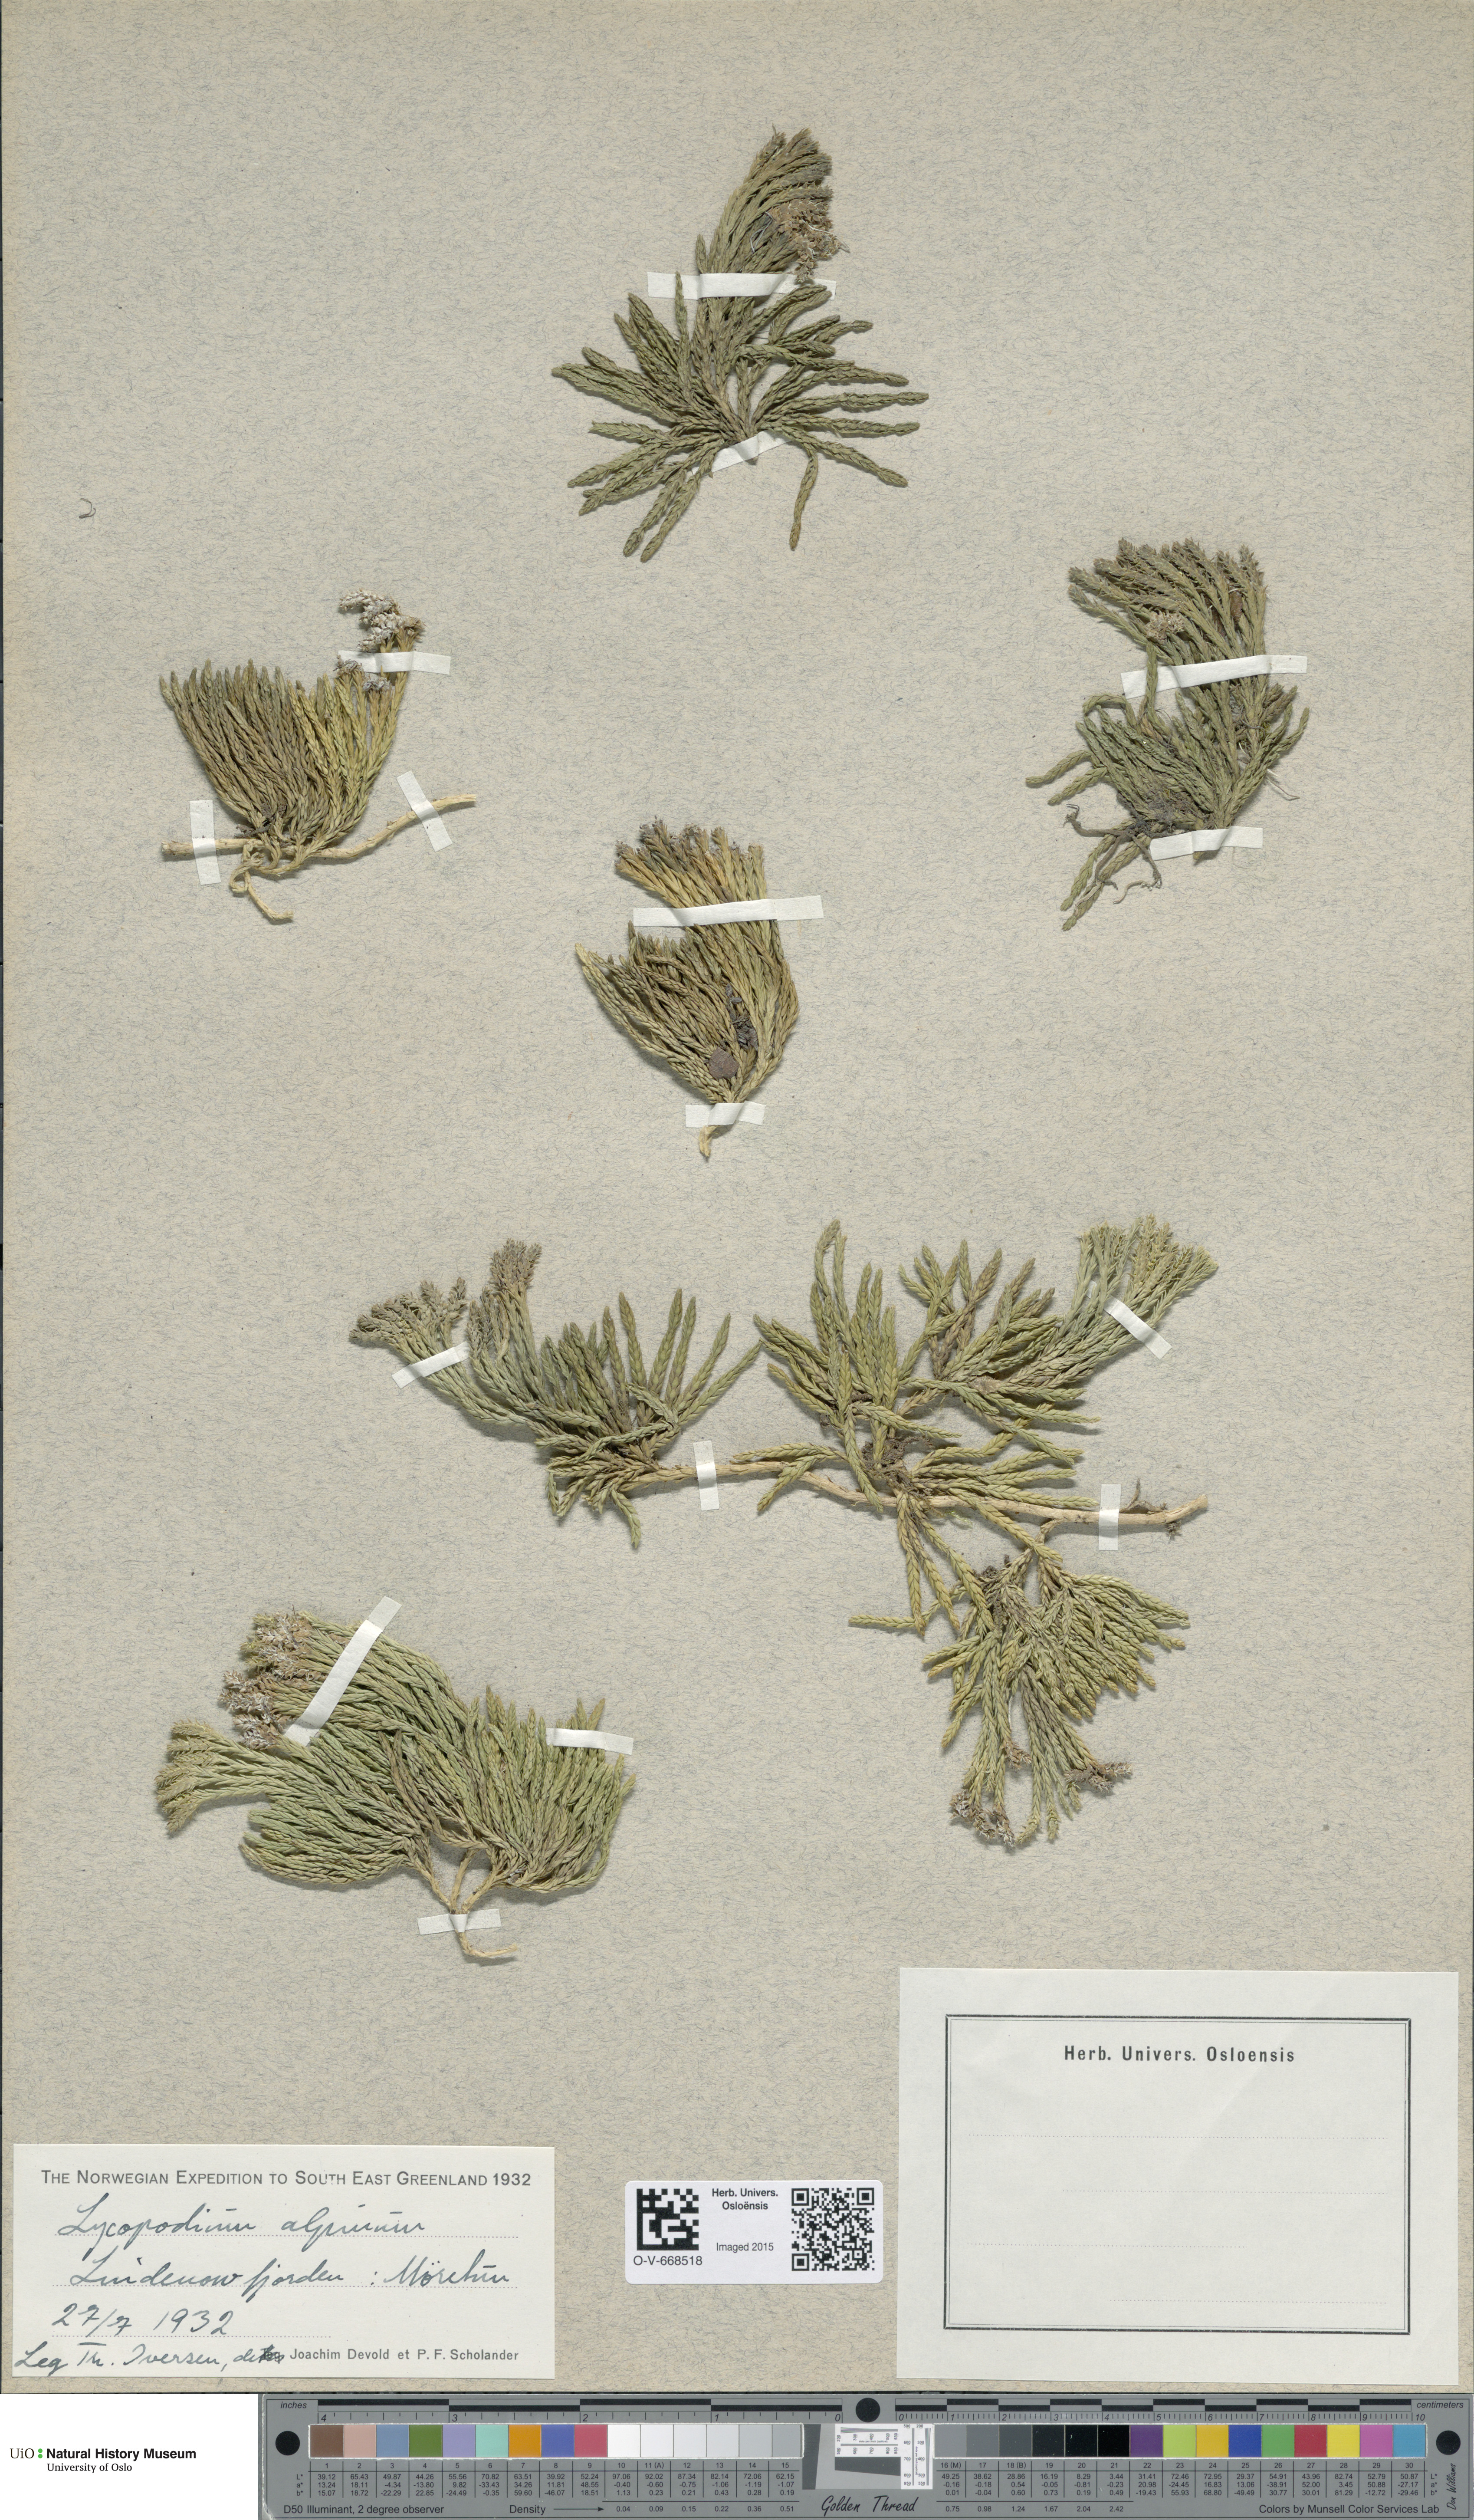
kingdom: Plantae
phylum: Tracheophyta
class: Lycopodiopsida
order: Lycopodiales
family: Lycopodiaceae
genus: Diphasiastrum
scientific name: Diphasiastrum alpinum
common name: Alpine clubmoss
